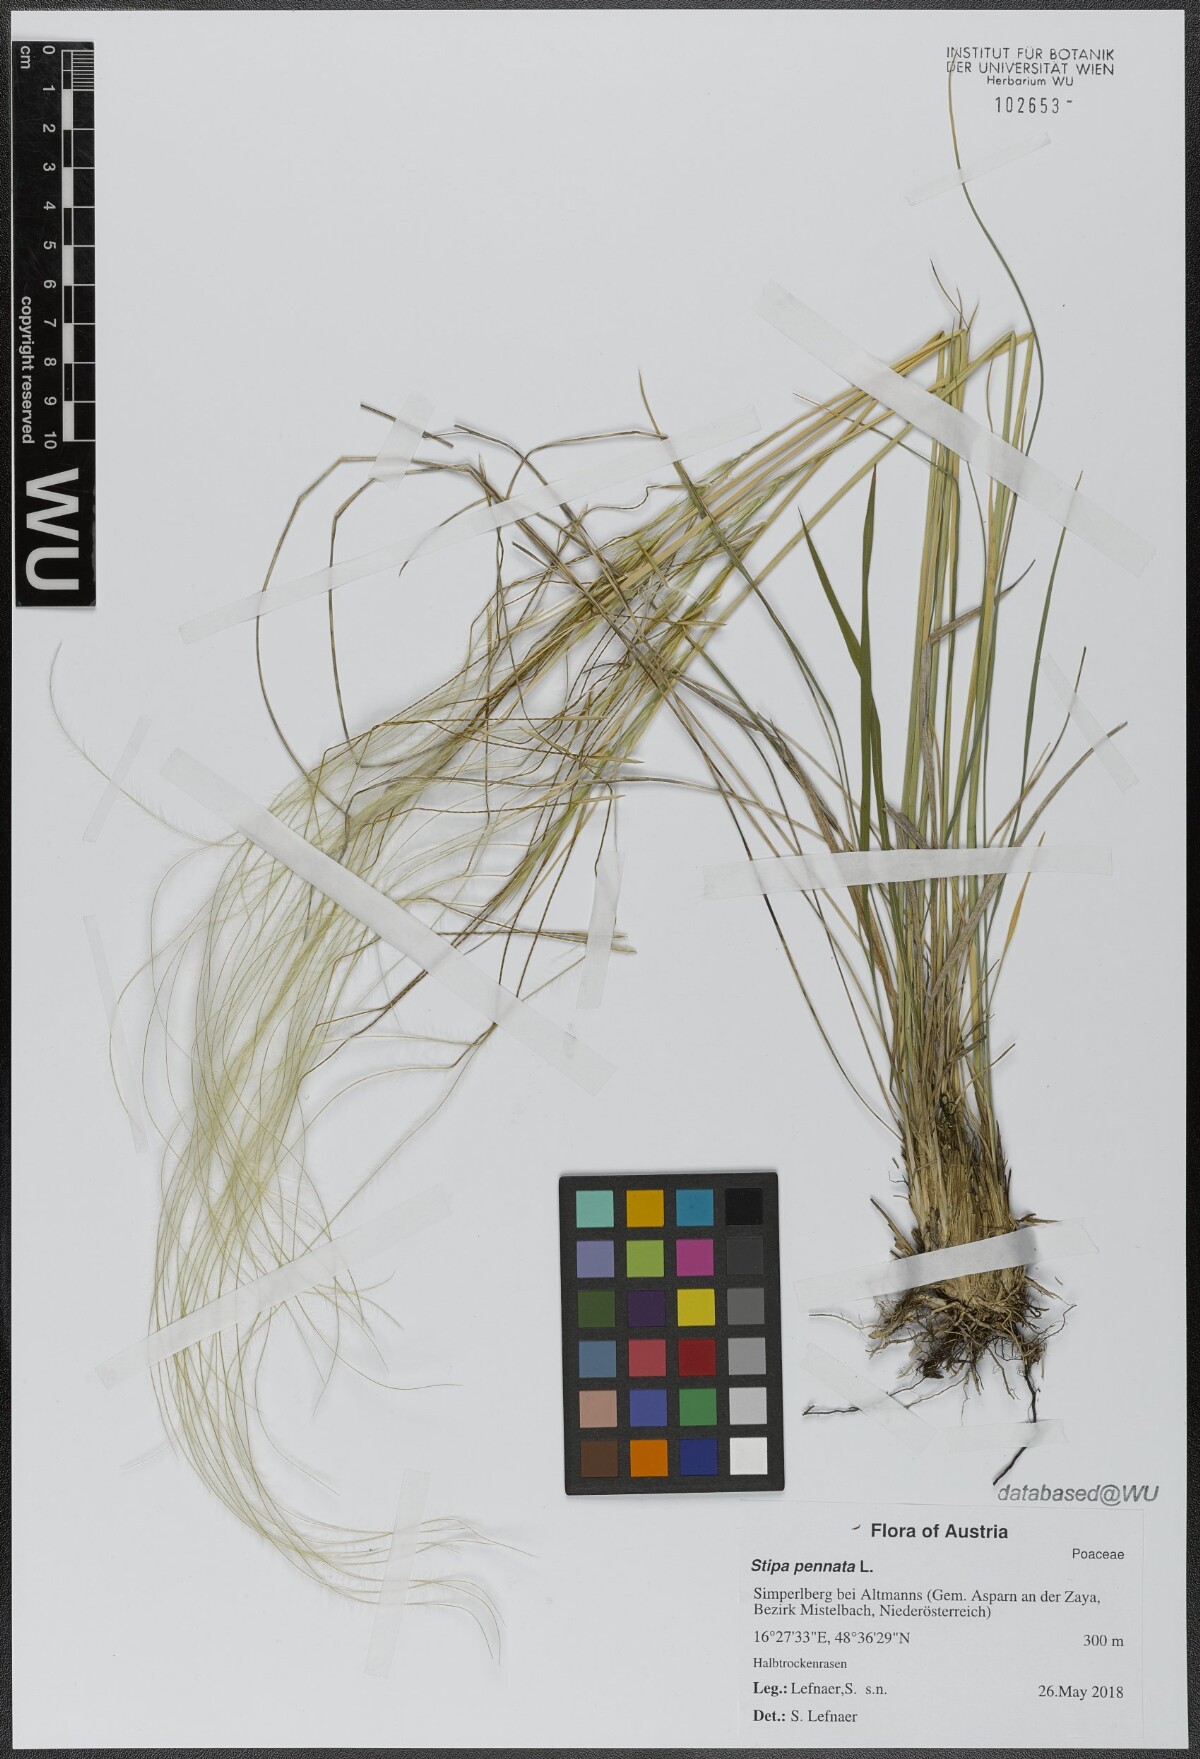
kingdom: Plantae
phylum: Tracheophyta
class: Liliopsida
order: Poales
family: Poaceae
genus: Stipa
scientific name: Stipa pennata
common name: European feather grass
